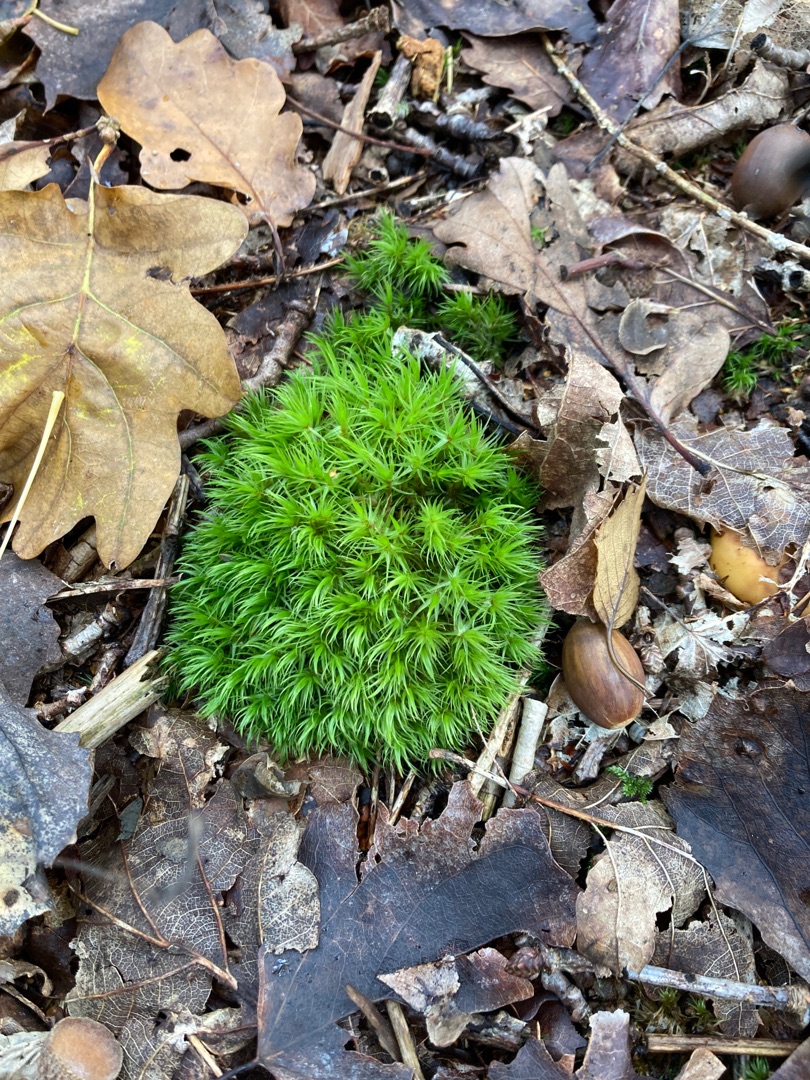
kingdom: Plantae
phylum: Bryophyta
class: Bryopsida
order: Dicranales
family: Dicranaceae
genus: Dicranum
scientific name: Dicranum scoparium
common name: Almindelig kløvtand
